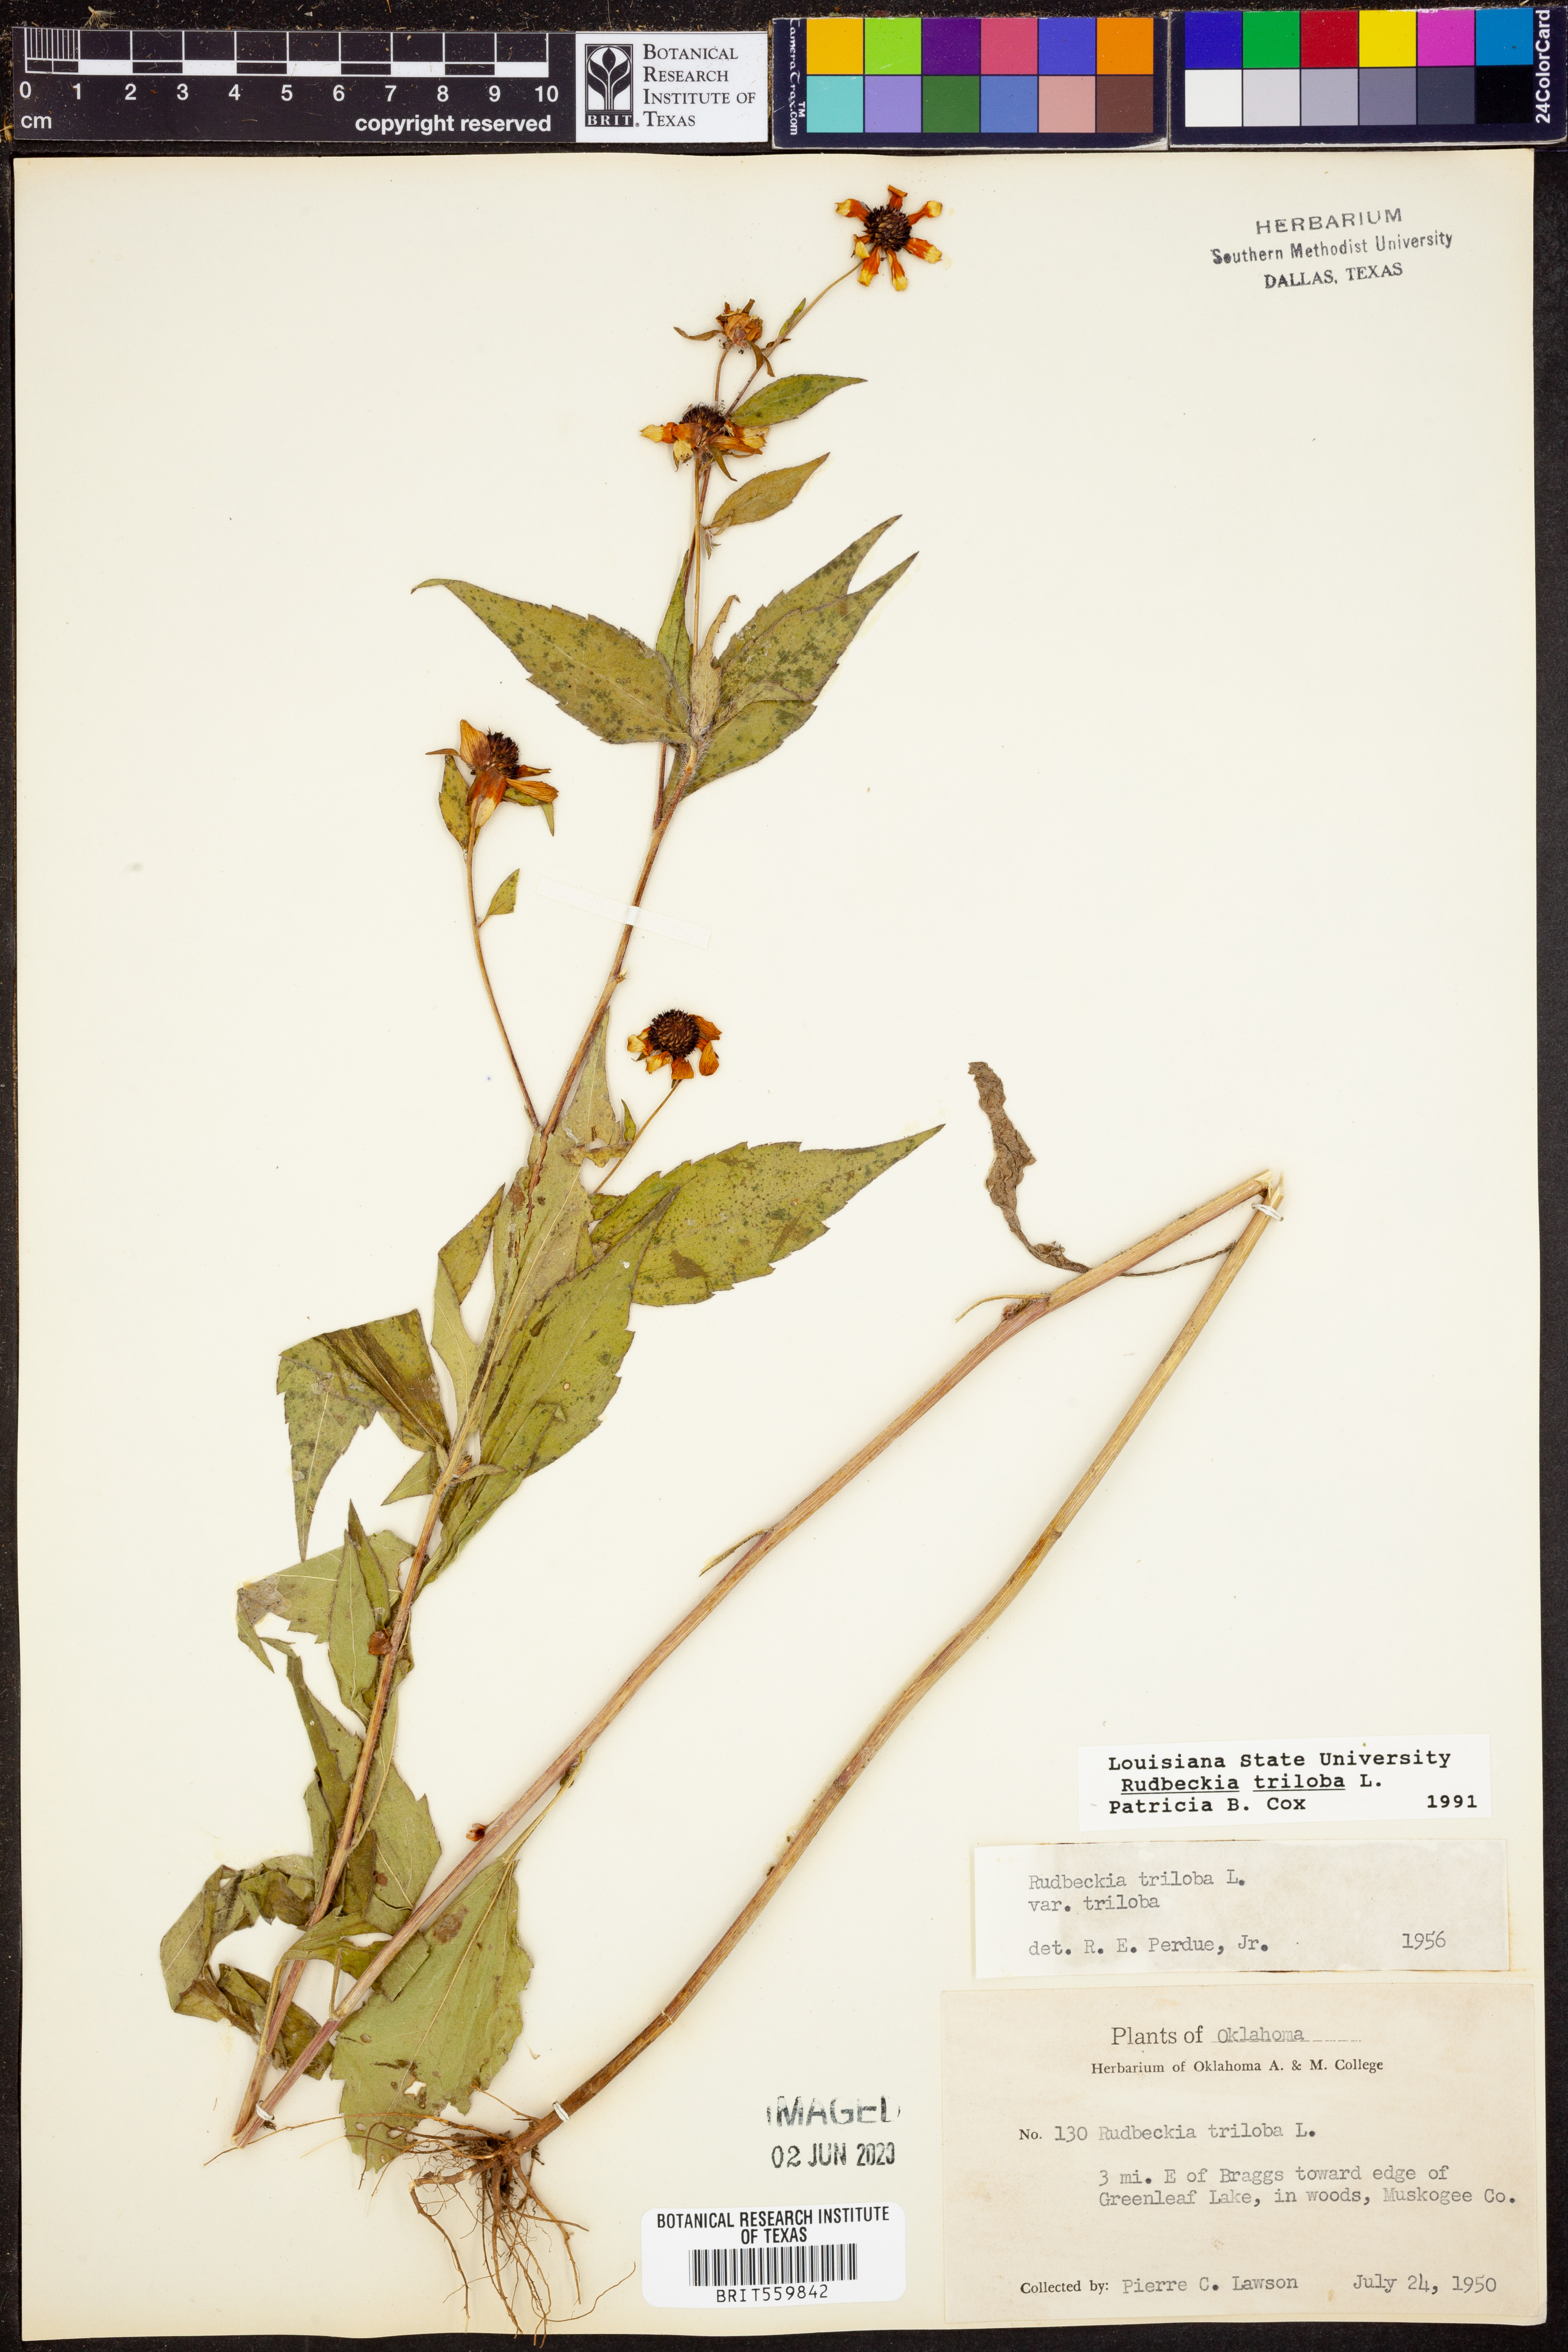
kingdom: Plantae
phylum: Tracheophyta
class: Magnoliopsida
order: Asterales
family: Asteraceae
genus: Rudbeckia
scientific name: Rudbeckia triloba
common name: Thin-leaved coneflower
